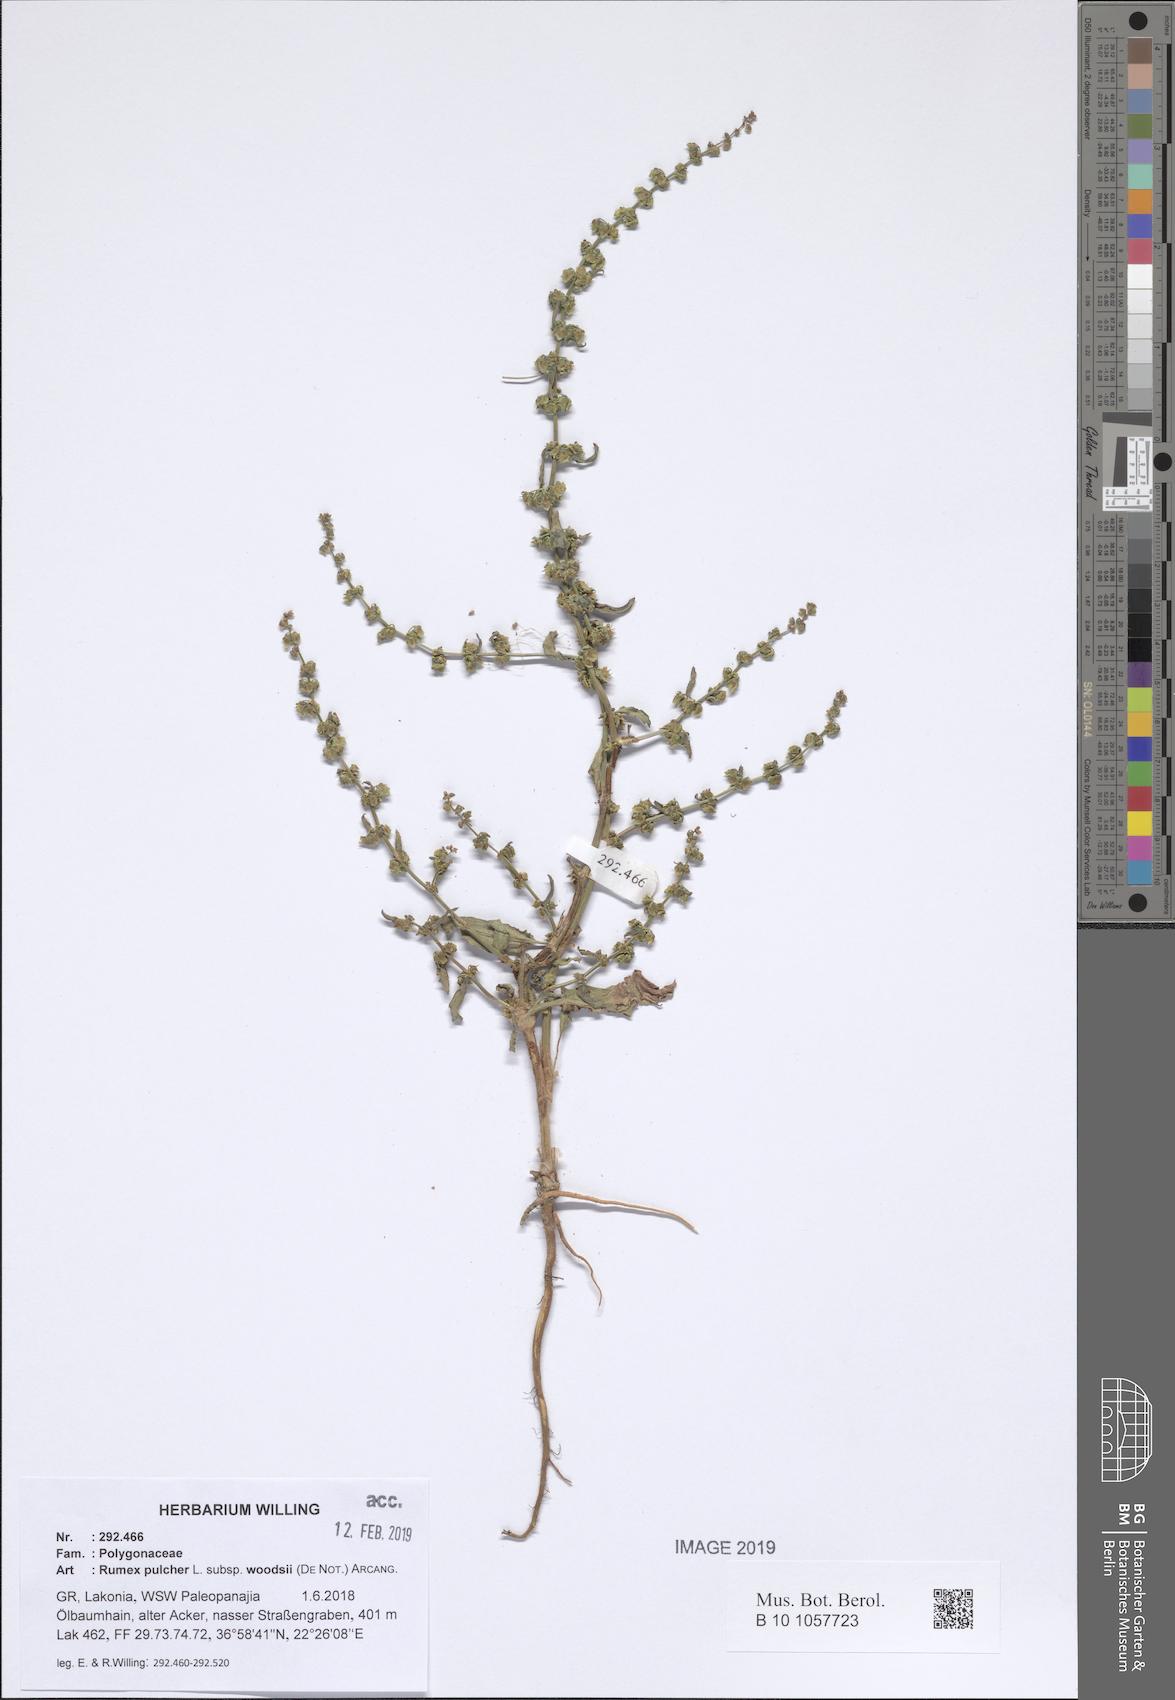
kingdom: Plantae
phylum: Tracheophyta
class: Magnoliopsida
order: Caryophyllales
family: Polygonaceae
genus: Rumex
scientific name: Rumex pulcher
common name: Fiddle dock
